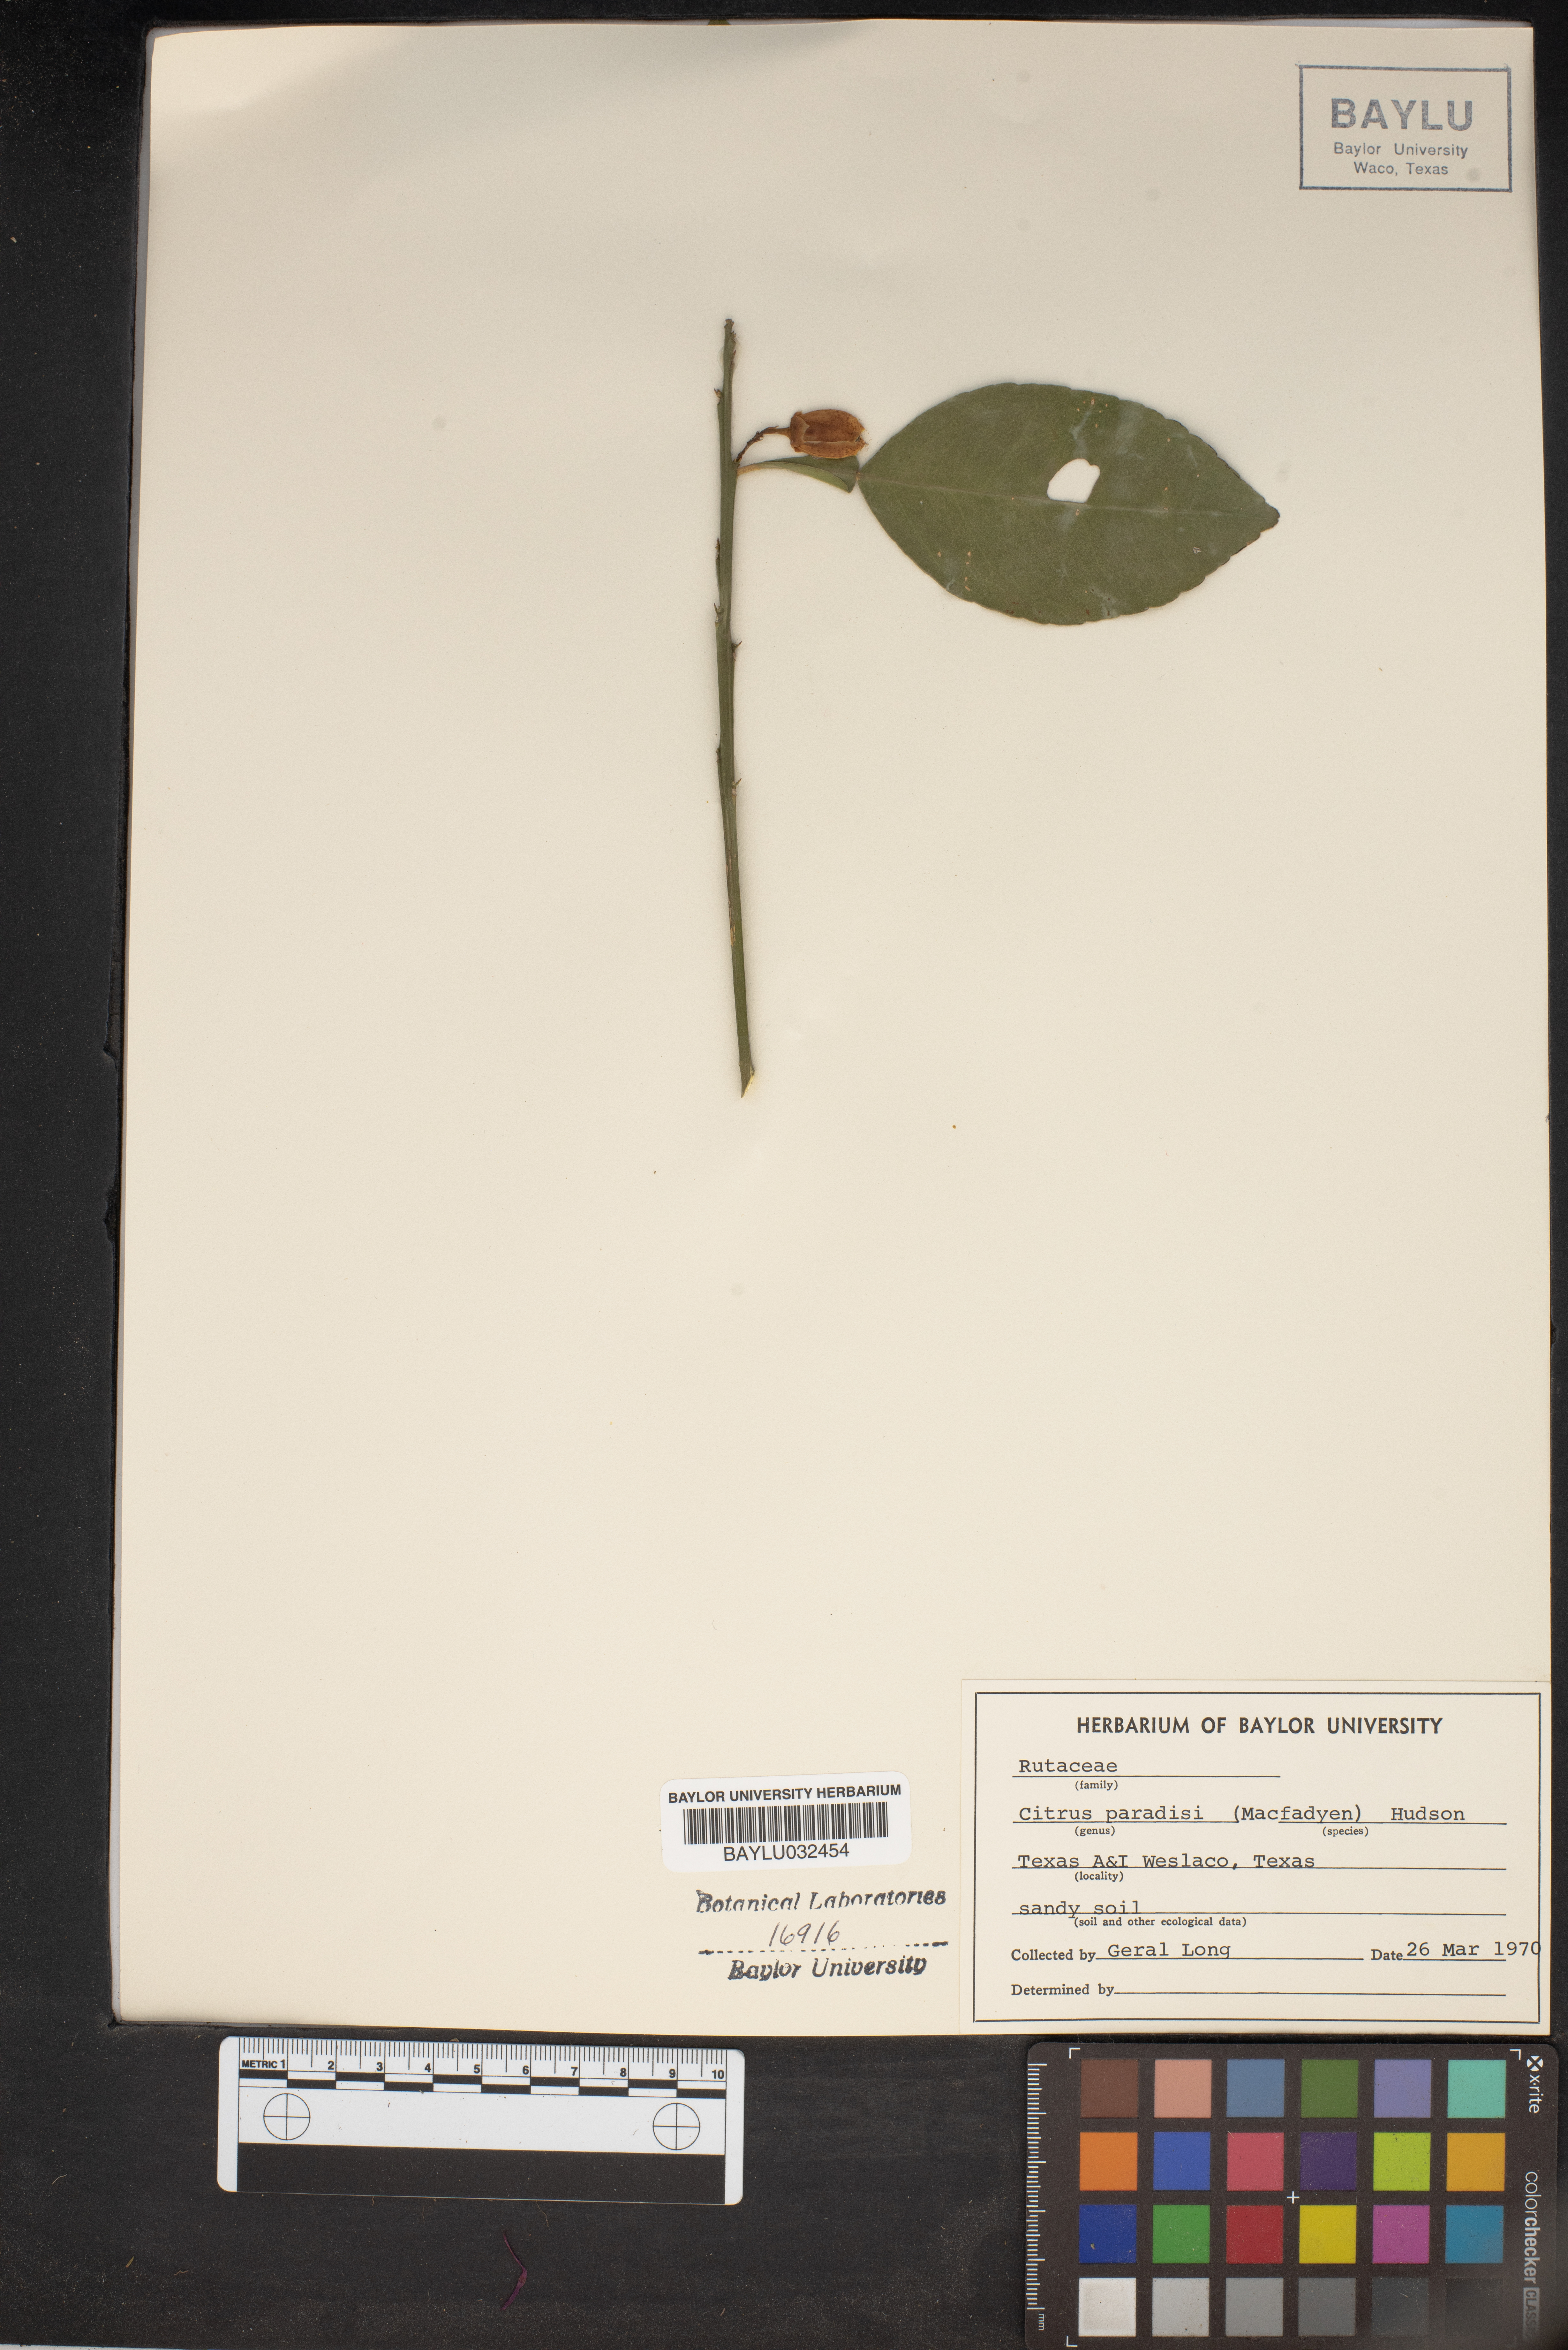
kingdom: Plantae
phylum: Tracheophyta
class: Magnoliopsida
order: Sapindales
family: Rutaceae
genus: Citrus
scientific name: Citrus aurantium
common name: Sour orange
